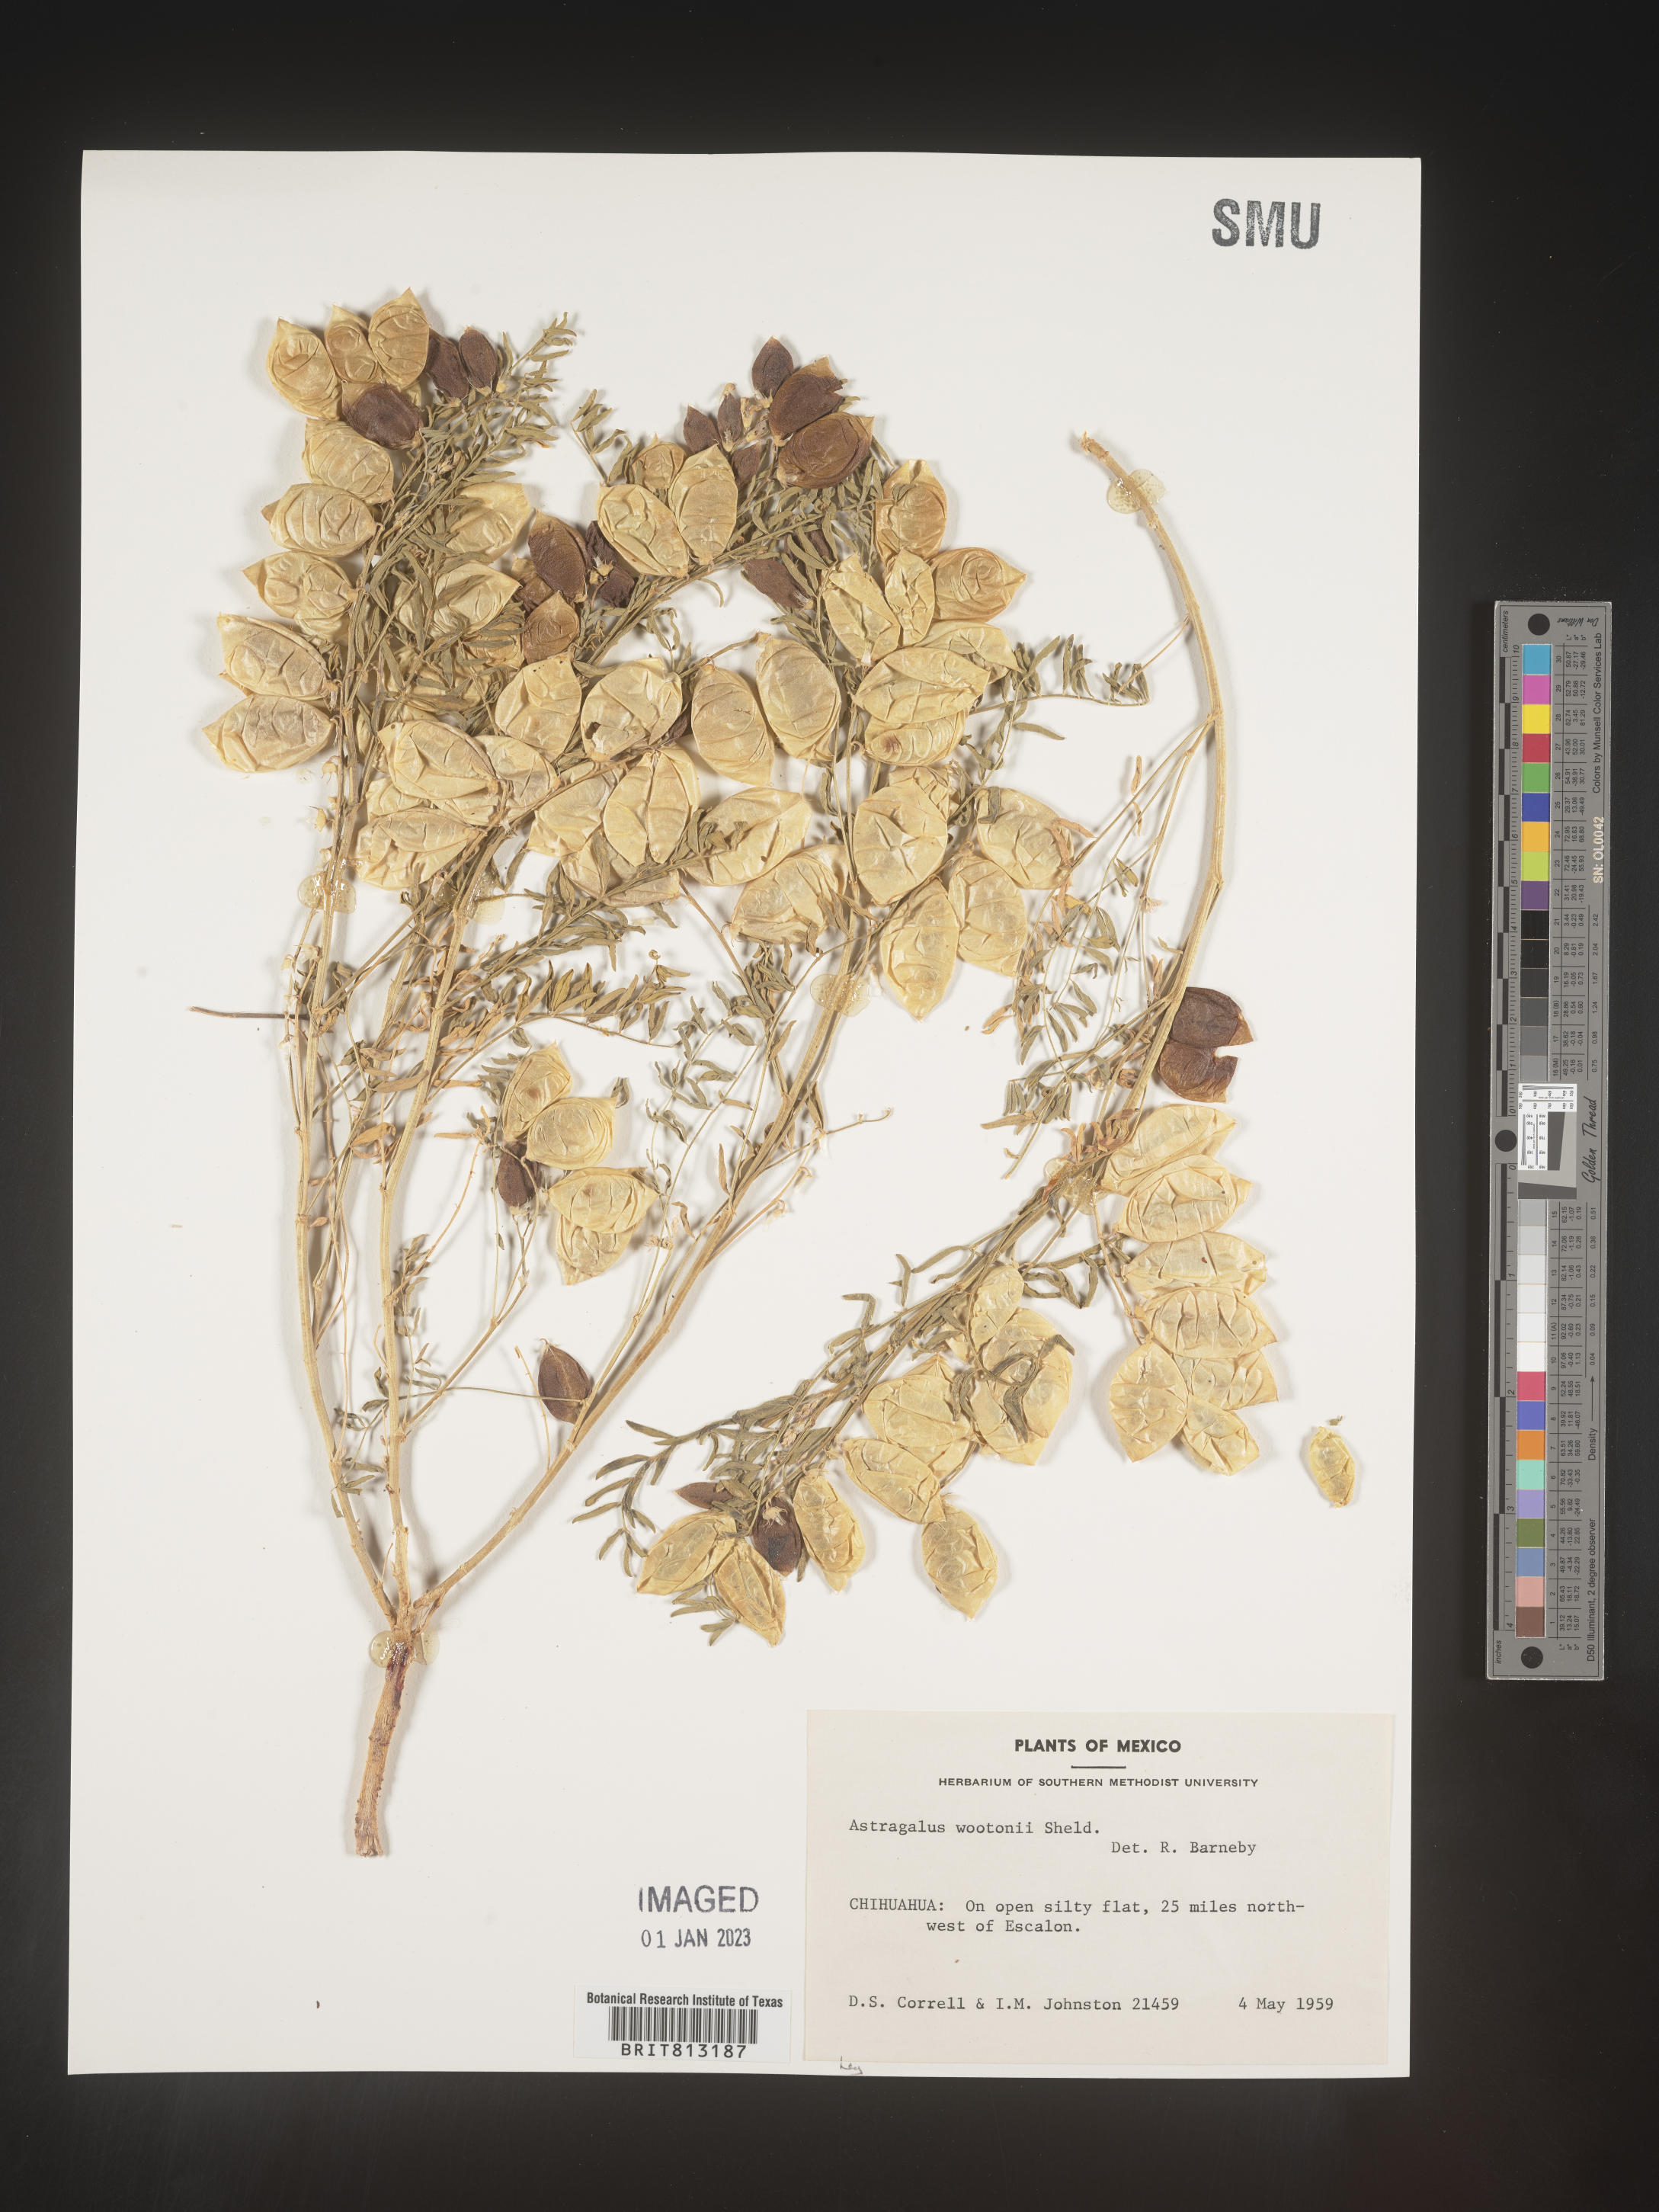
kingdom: Plantae
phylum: Tracheophyta
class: Magnoliopsida
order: Fabales
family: Fabaceae
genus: Astragalus
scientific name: Astragalus
